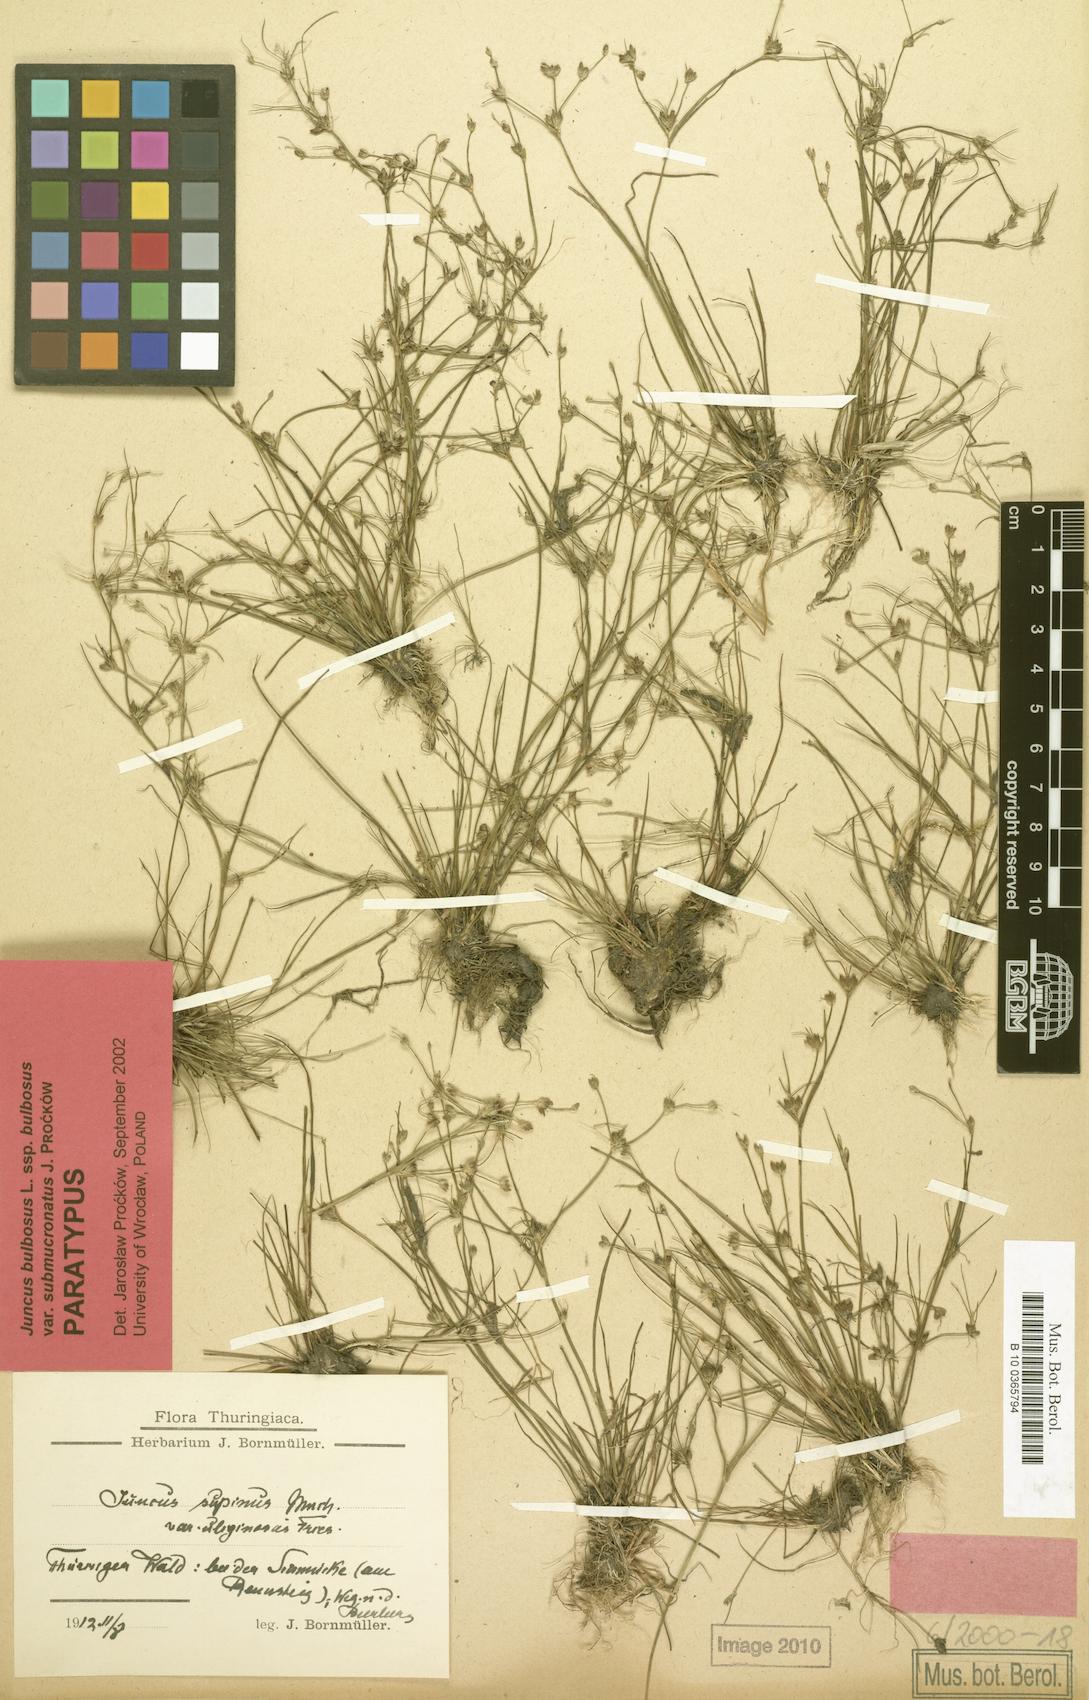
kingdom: Plantae
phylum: Tracheophyta
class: Liliopsida
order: Poales
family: Juncaceae
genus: Juncus
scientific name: Juncus bulbosus
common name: Bulbous rush
